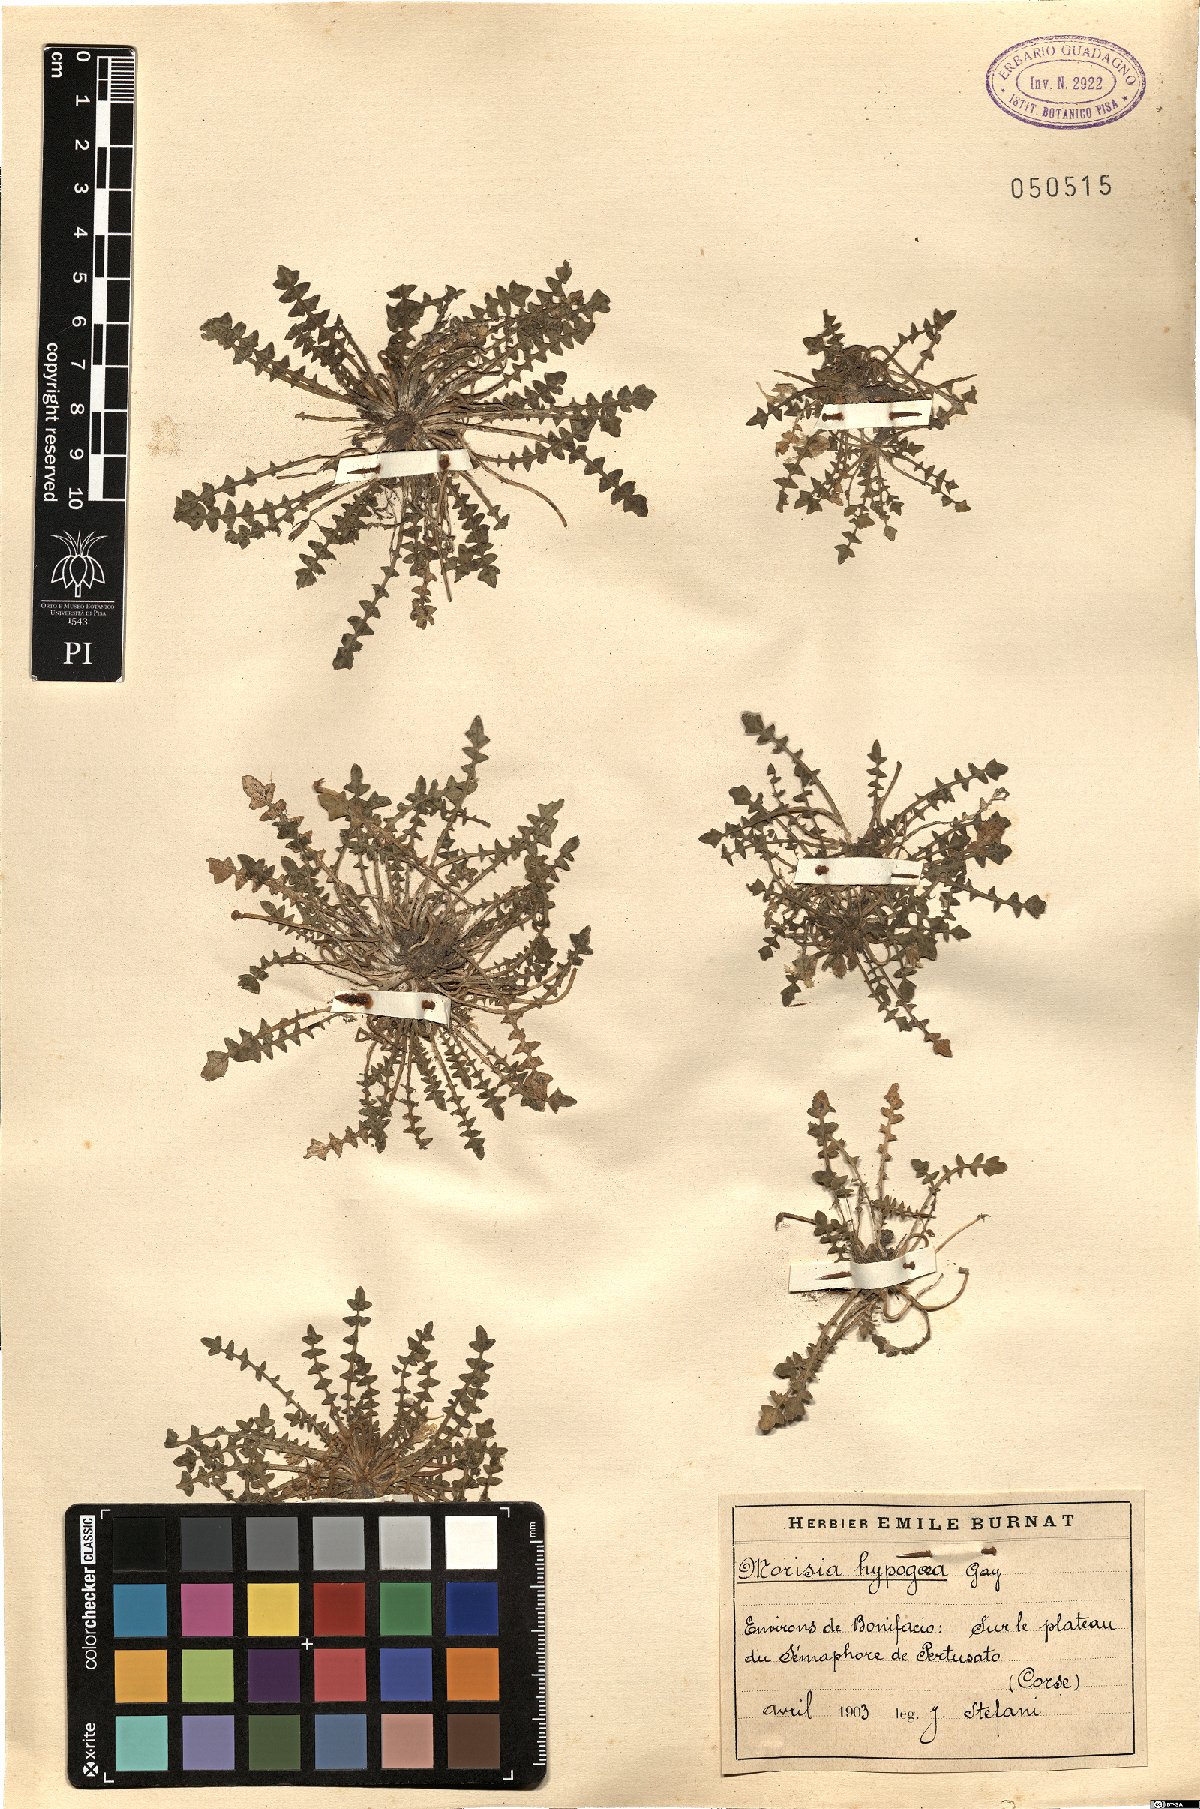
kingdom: Plantae
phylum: Tracheophyta
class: Magnoliopsida
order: Brassicales
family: Brassicaceae
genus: Morisia
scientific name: Morisia hypogaea
